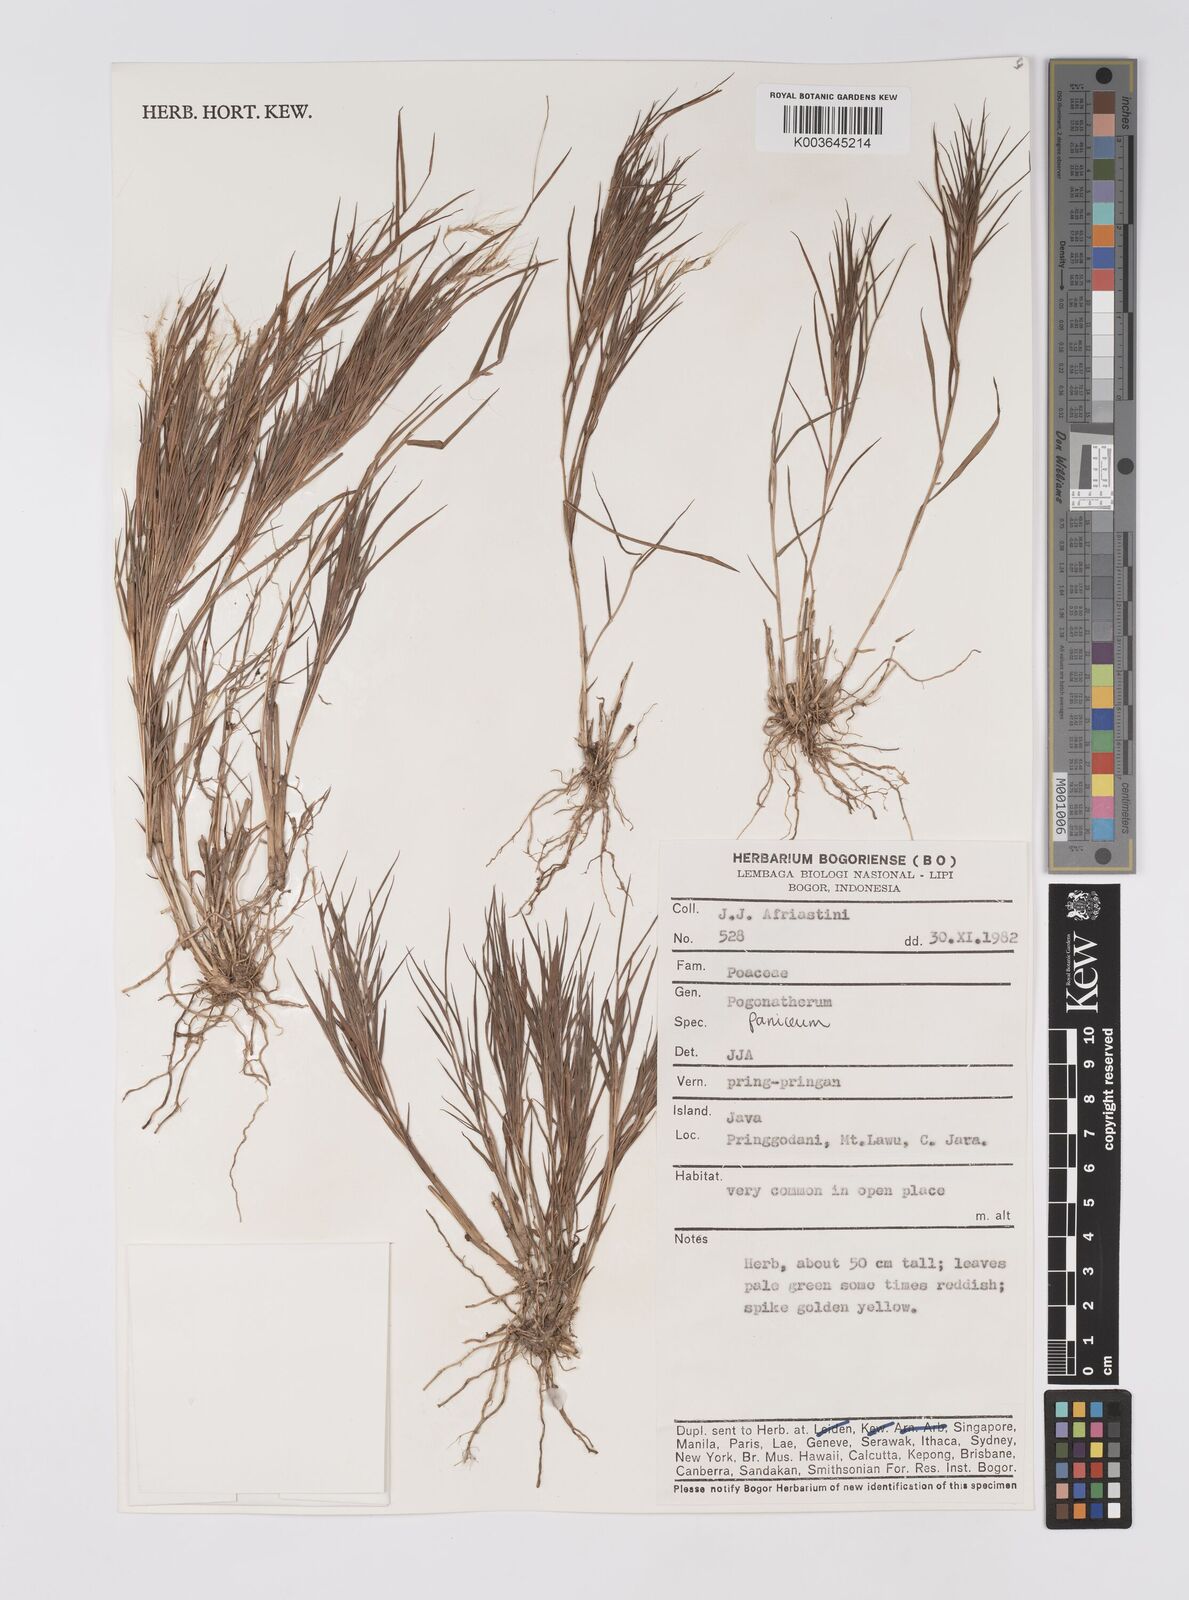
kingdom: Plantae
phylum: Tracheophyta
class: Liliopsida
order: Poales
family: Poaceae
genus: Pogonatherum
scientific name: Pogonatherum paniceum
